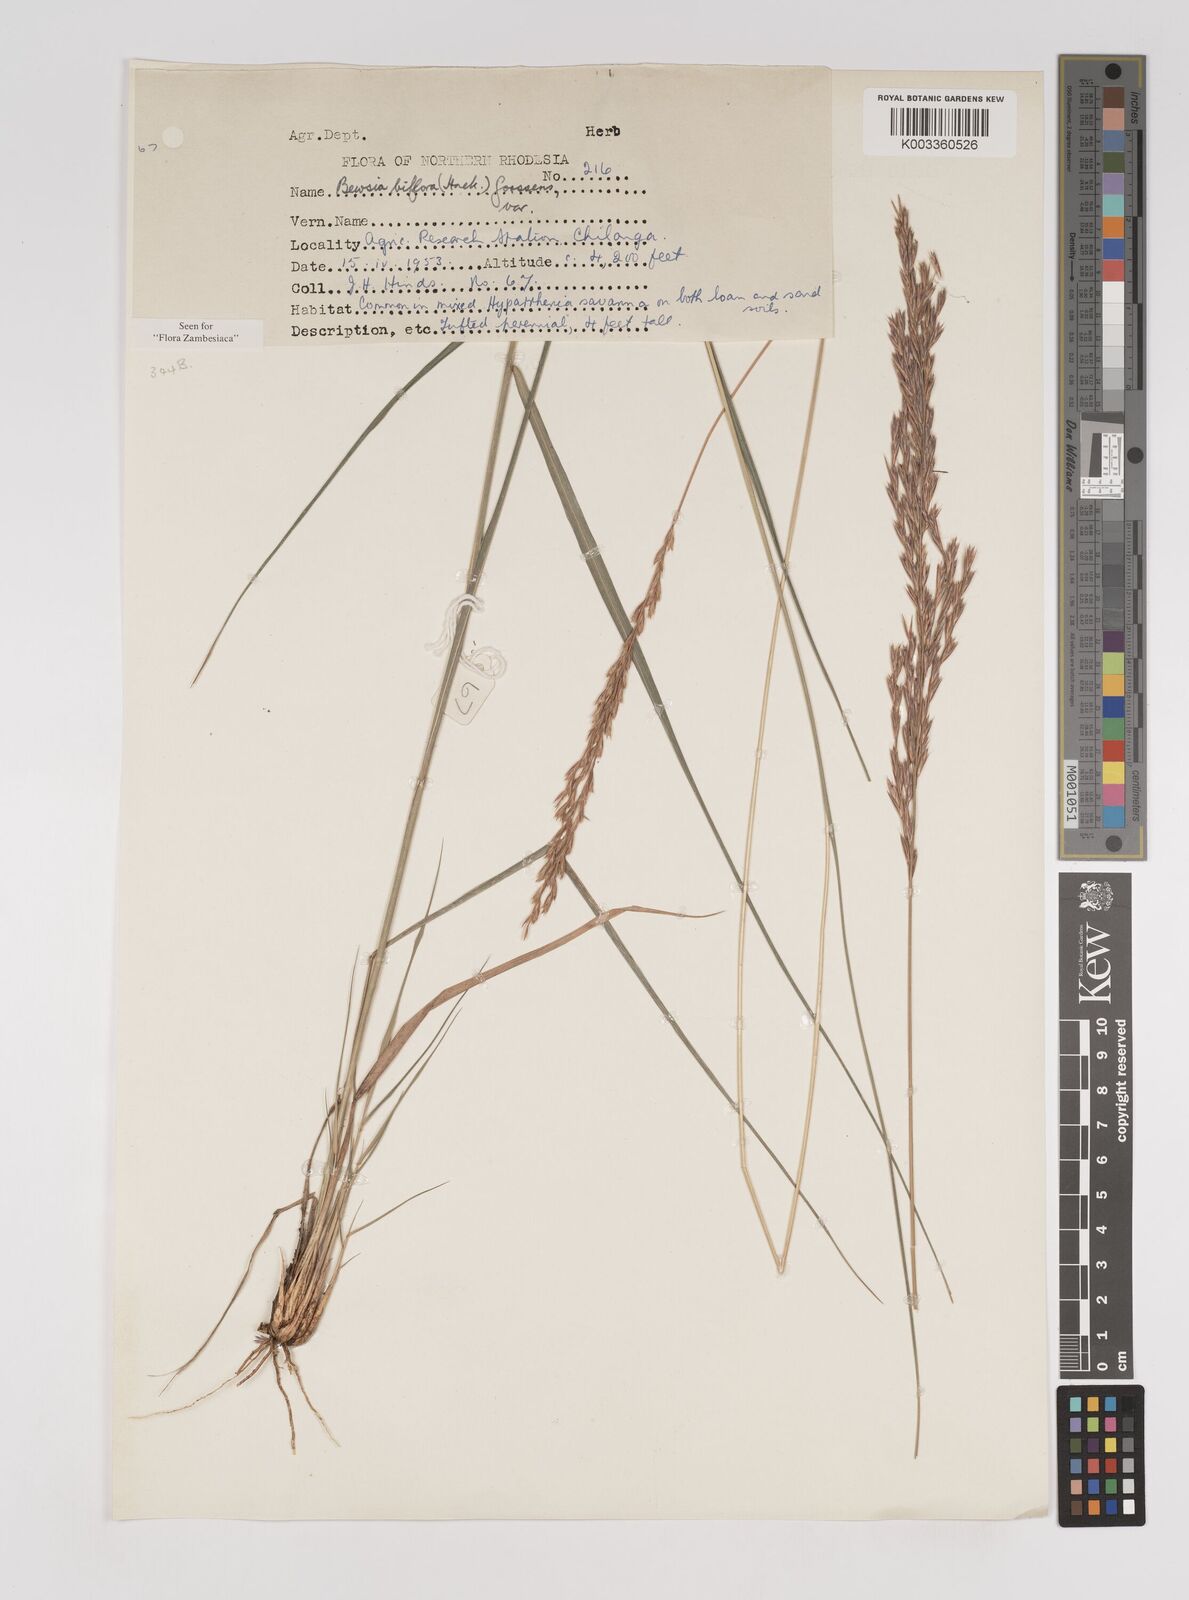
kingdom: Plantae
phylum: Tracheophyta
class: Liliopsida
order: Poales
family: Poaceae
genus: Bewsia
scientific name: Bewsia biflora
